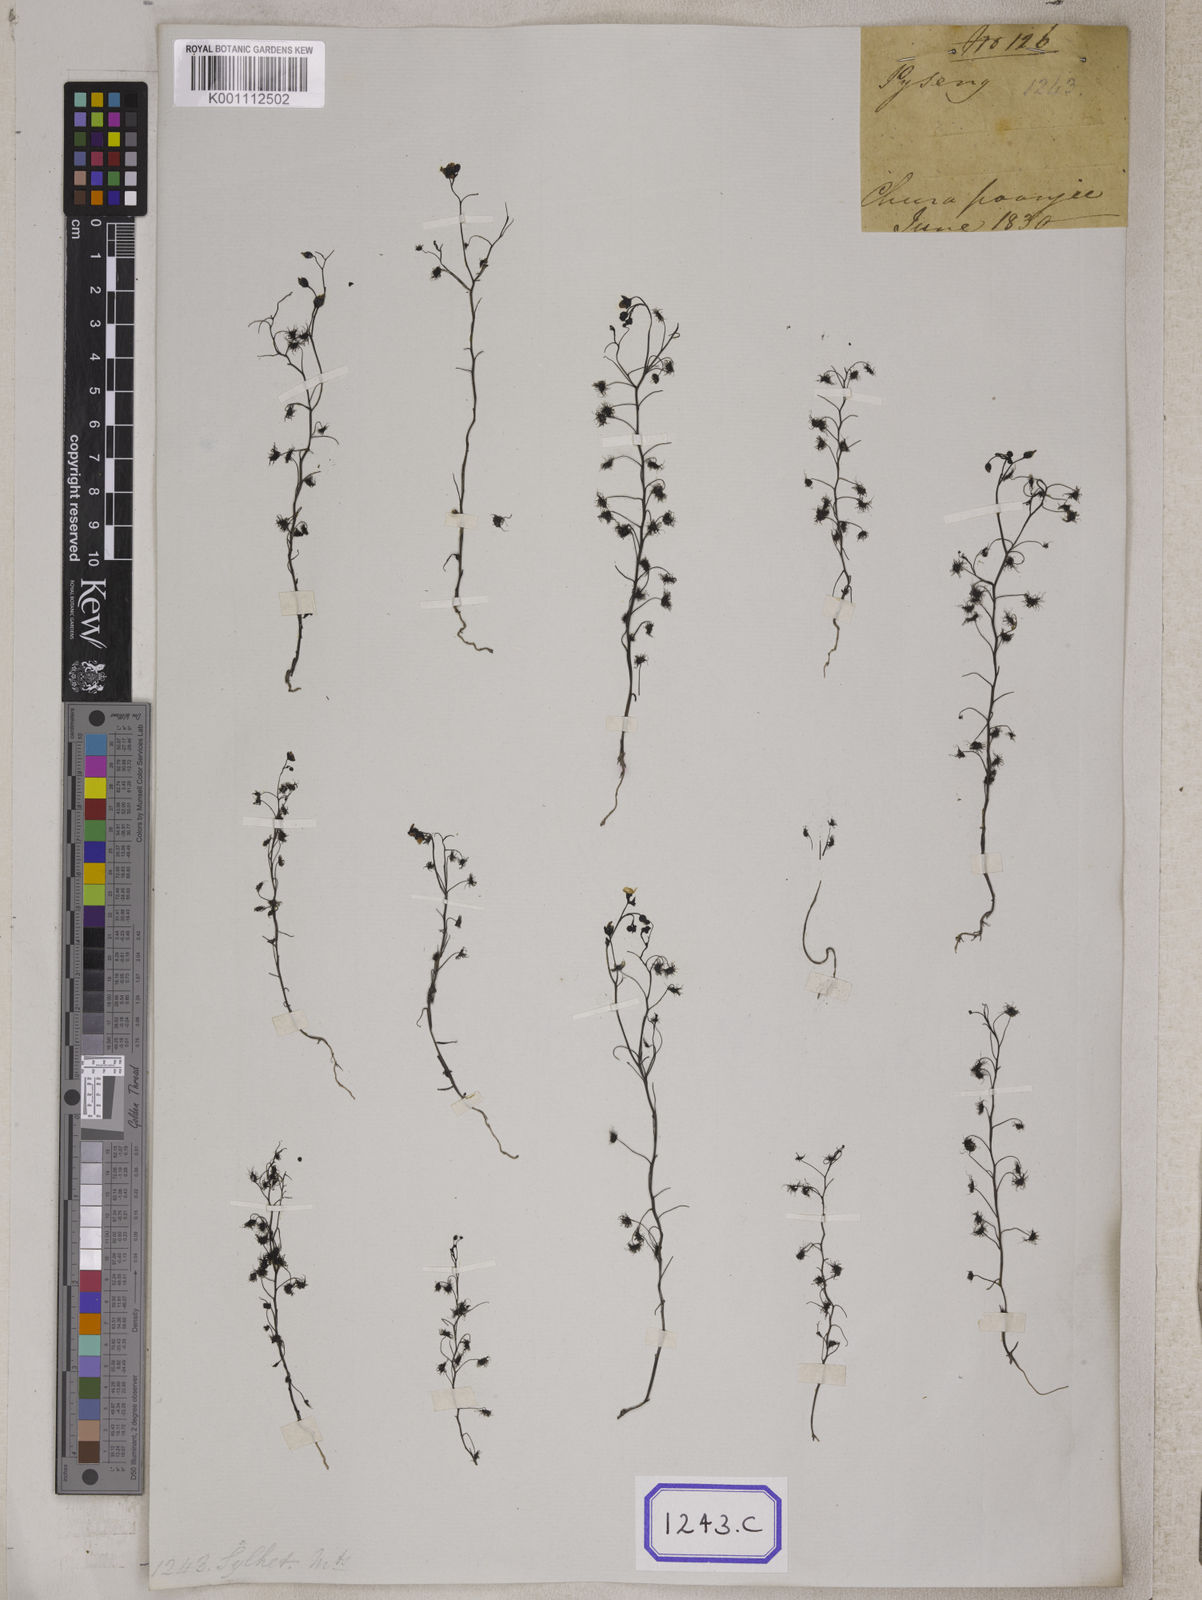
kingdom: Plantae
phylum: Tracheophyta
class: Magnoliopsida
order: Caryophyllales
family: Droseraceae
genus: Drosera
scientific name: Drosera
